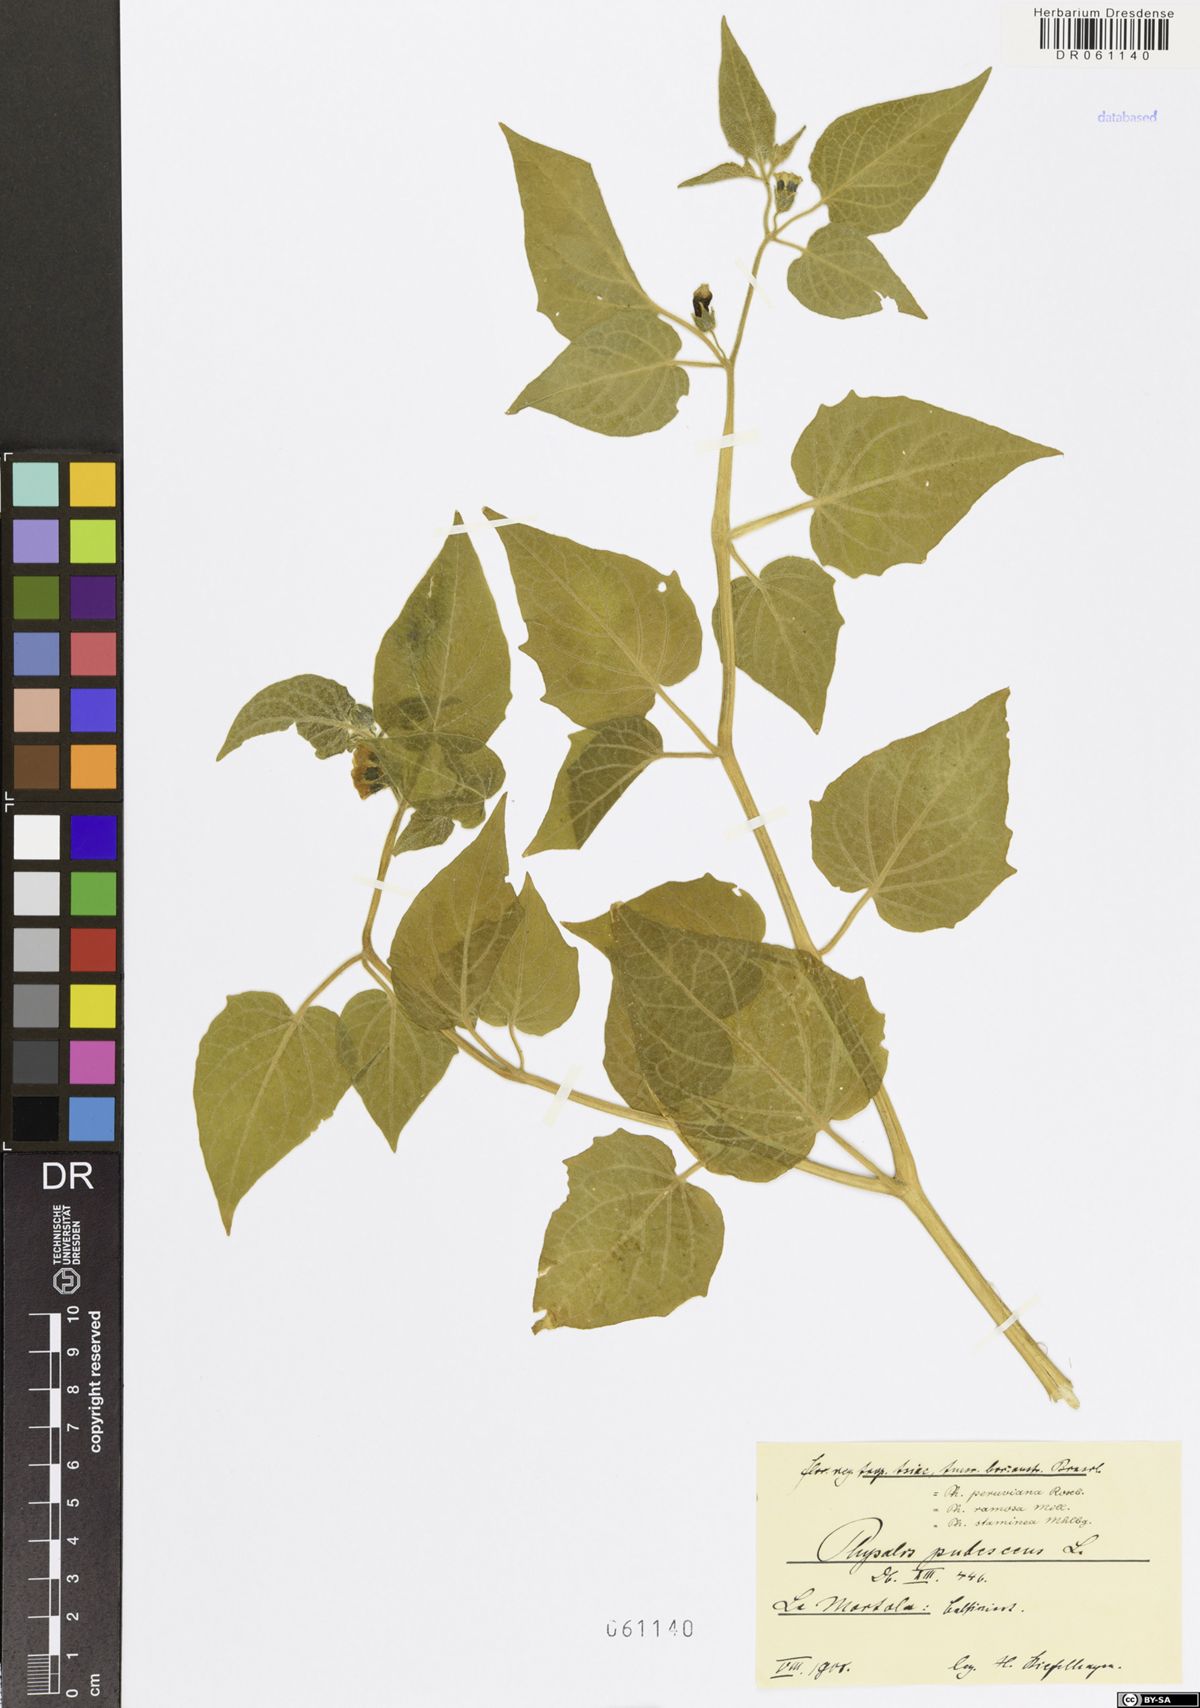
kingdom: Plantae
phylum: Tracheophyta
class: Magnoliopsida
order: Solanales
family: Solanaceae
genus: Physalis
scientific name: Physalis pubescens
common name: Downy ground-cherry
